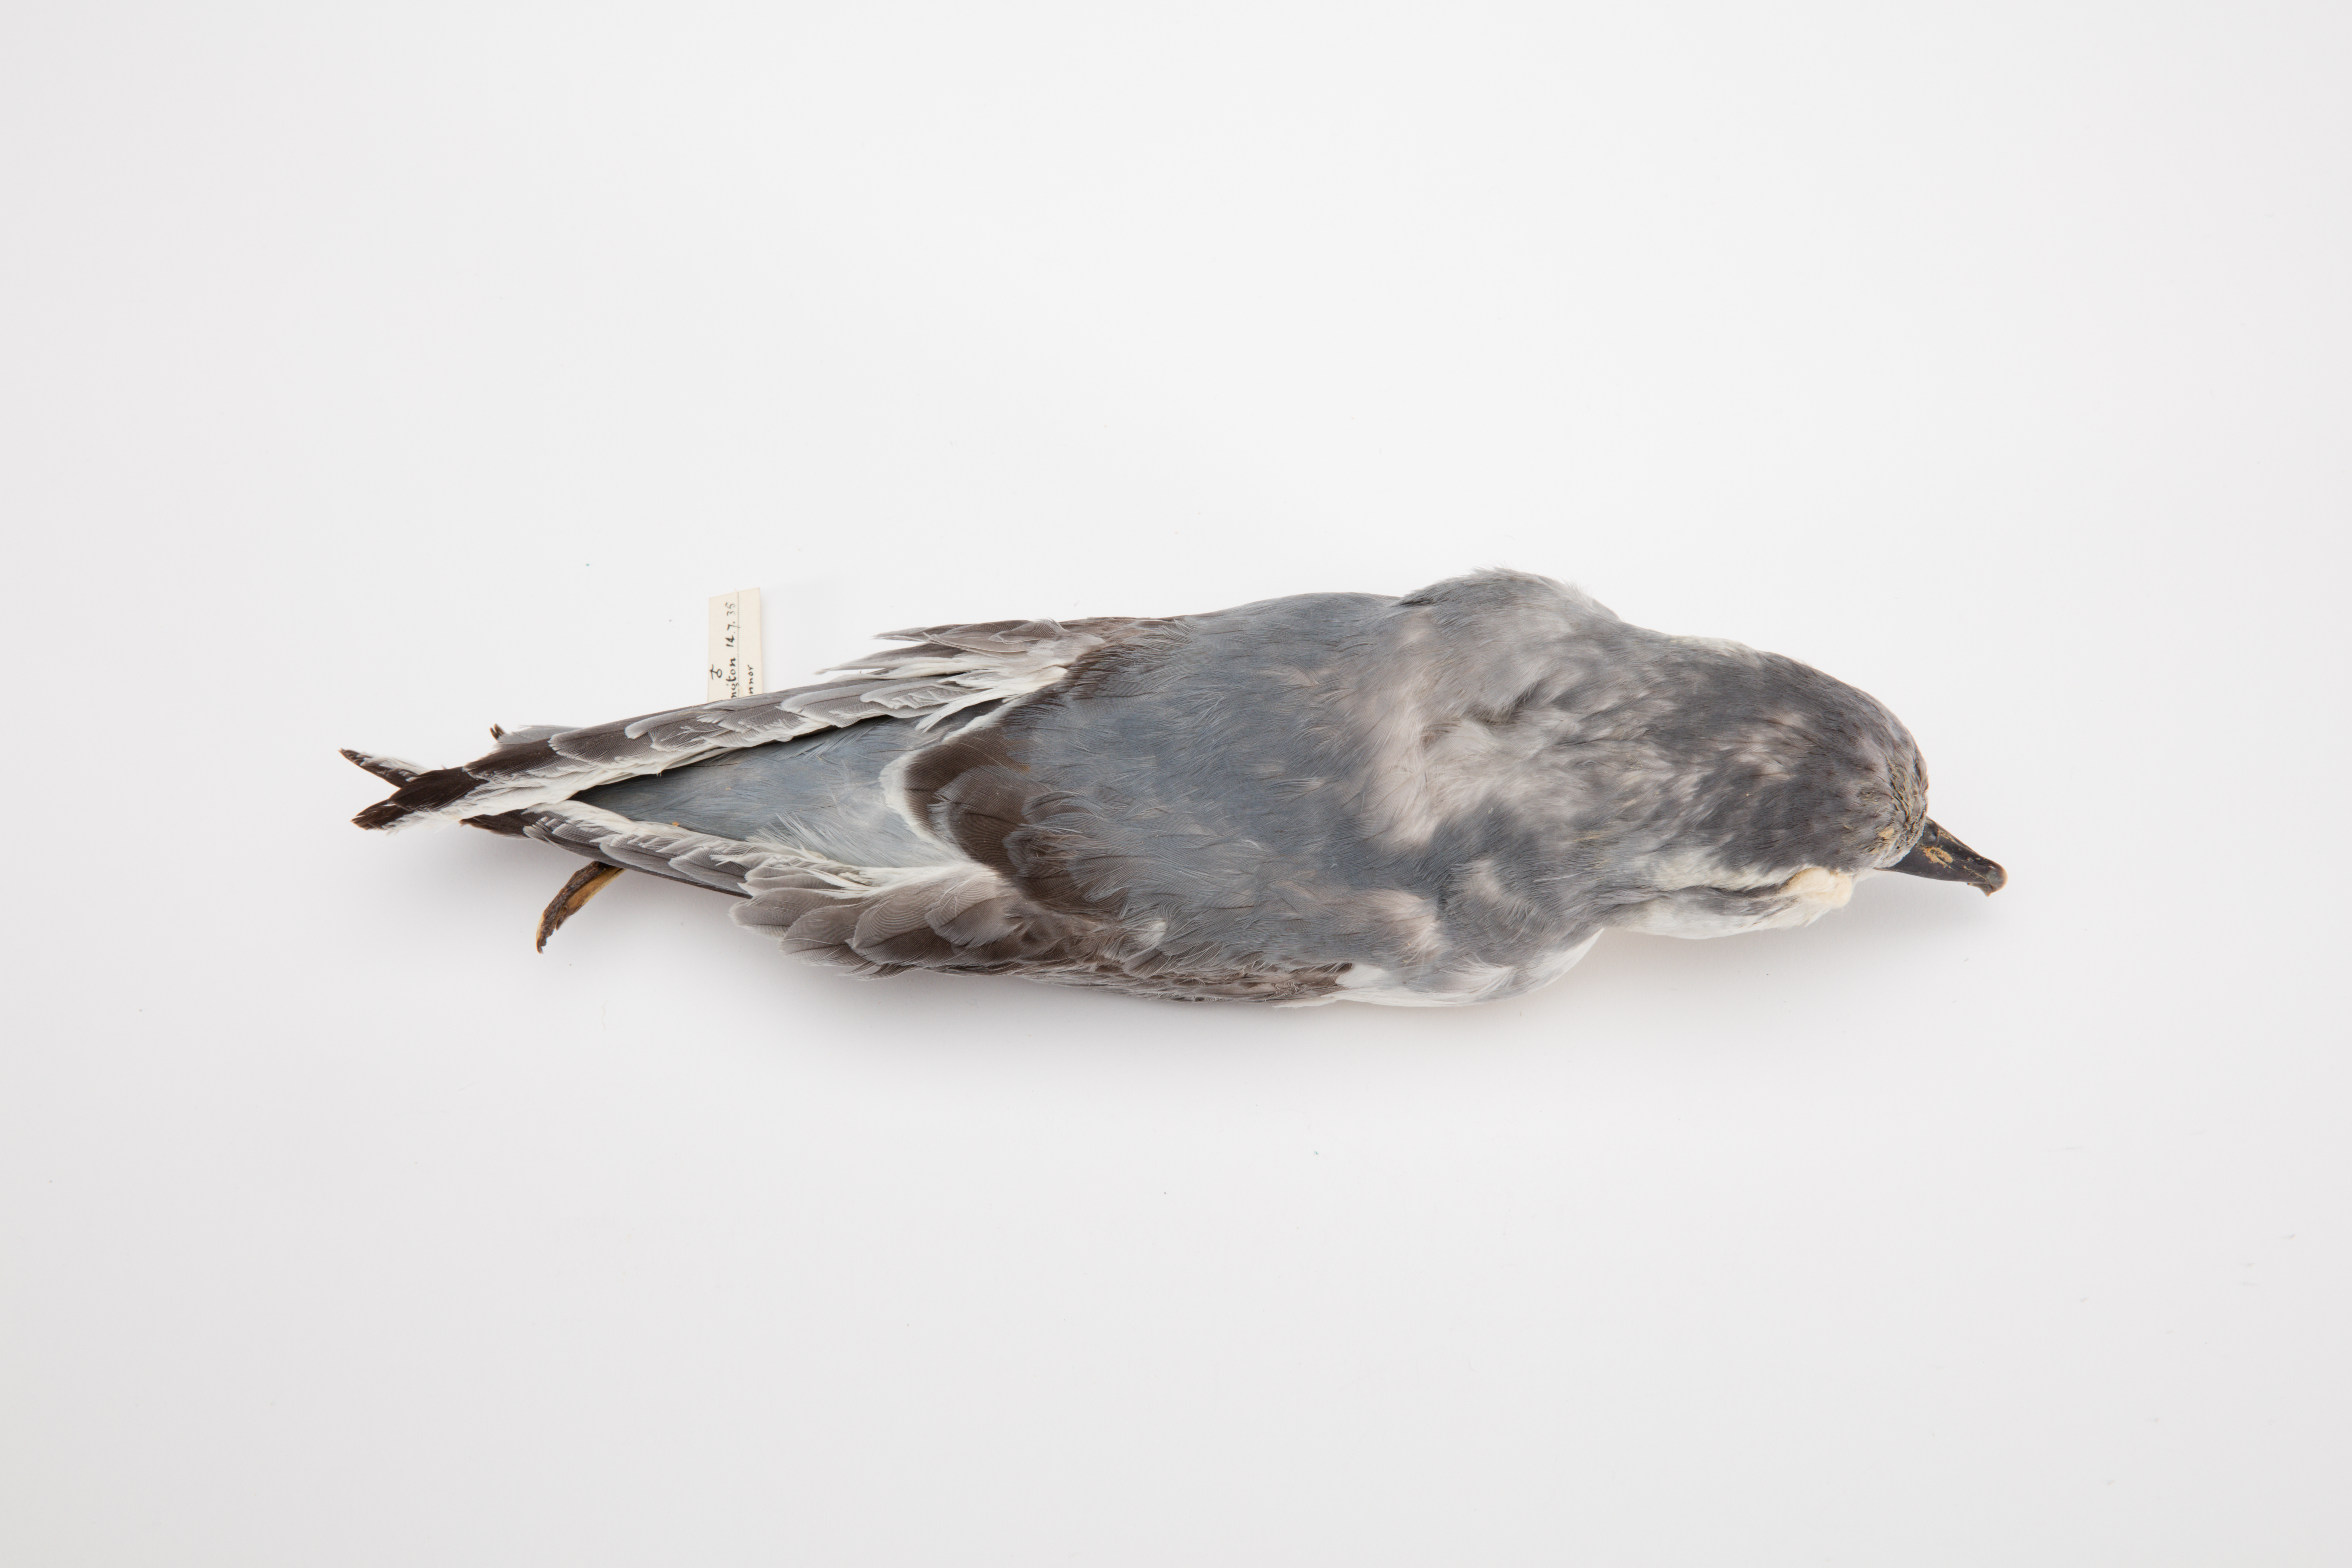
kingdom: Animalia
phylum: Chordata
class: Aves
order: Procellariiformes
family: Procellariidae
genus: Pachyptila
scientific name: Pachyptila salvini
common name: Salvin's prion
